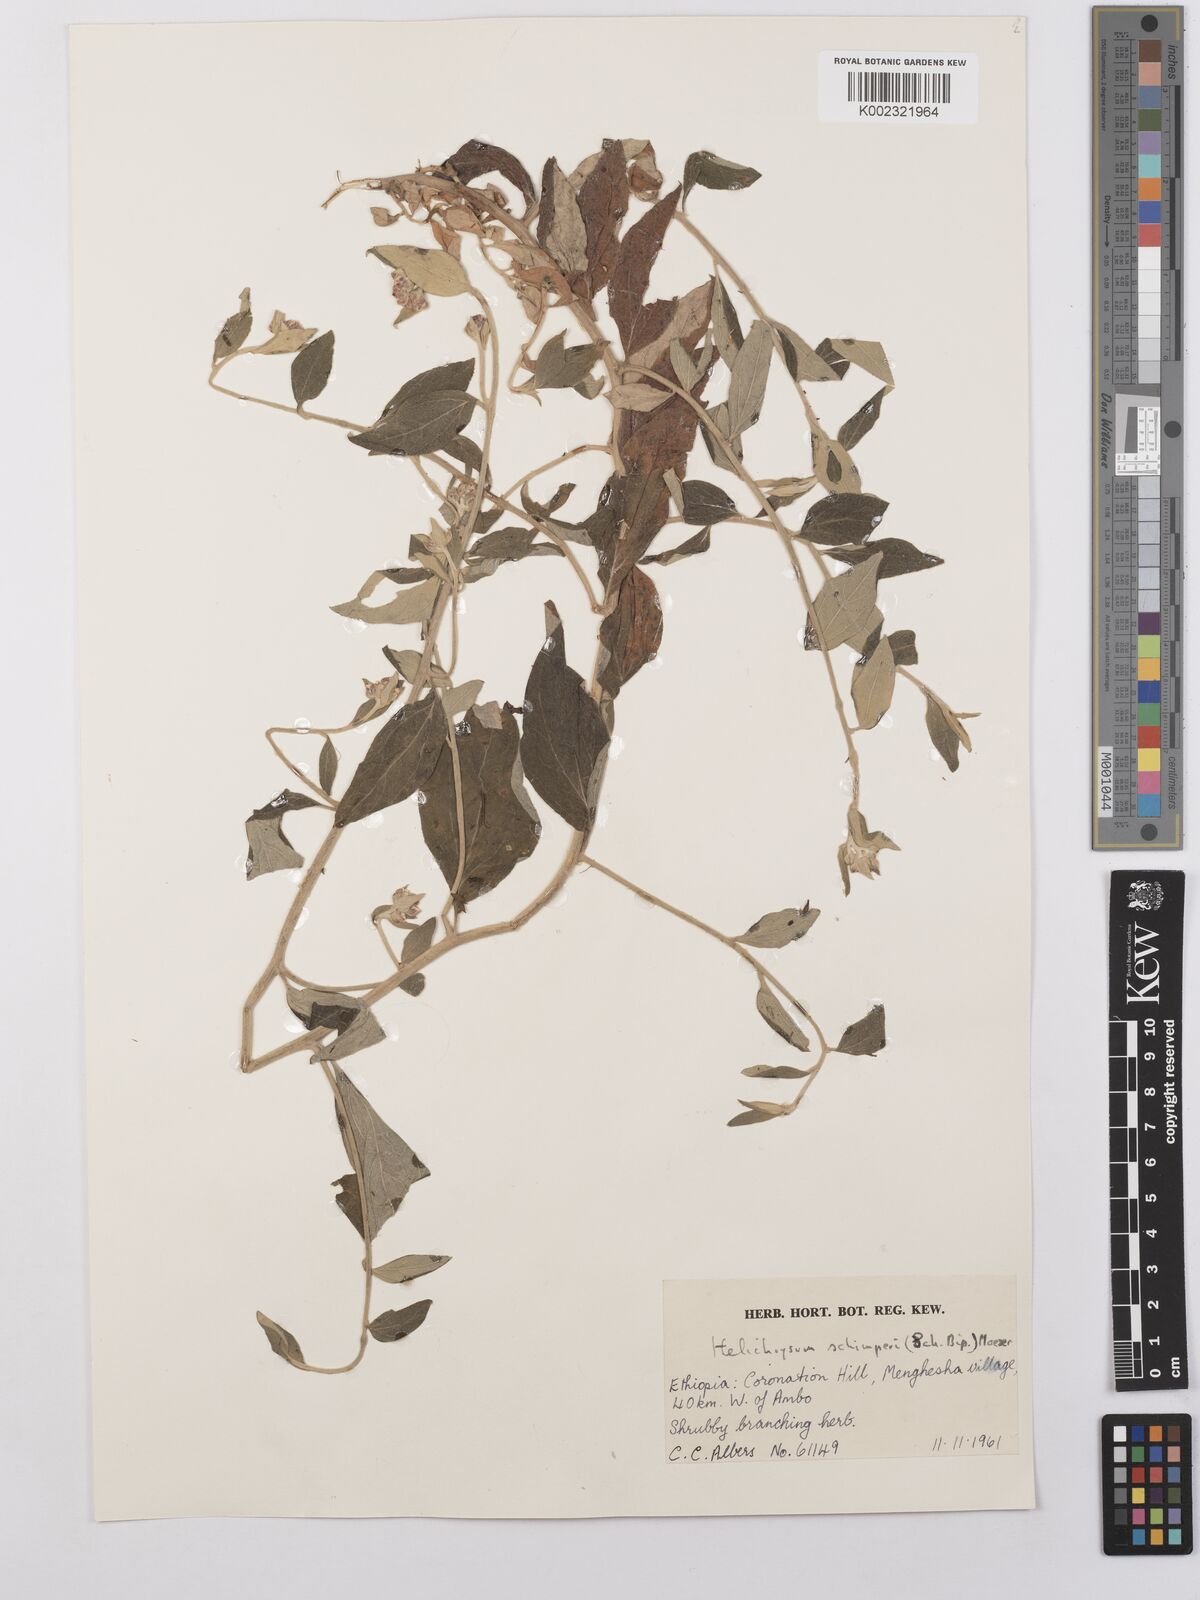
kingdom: Plantae
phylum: Tracheophyta
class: Magnoliopsida
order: Asterales
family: Asteraceae
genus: Helichrysum
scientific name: Helichrysum schimperi
